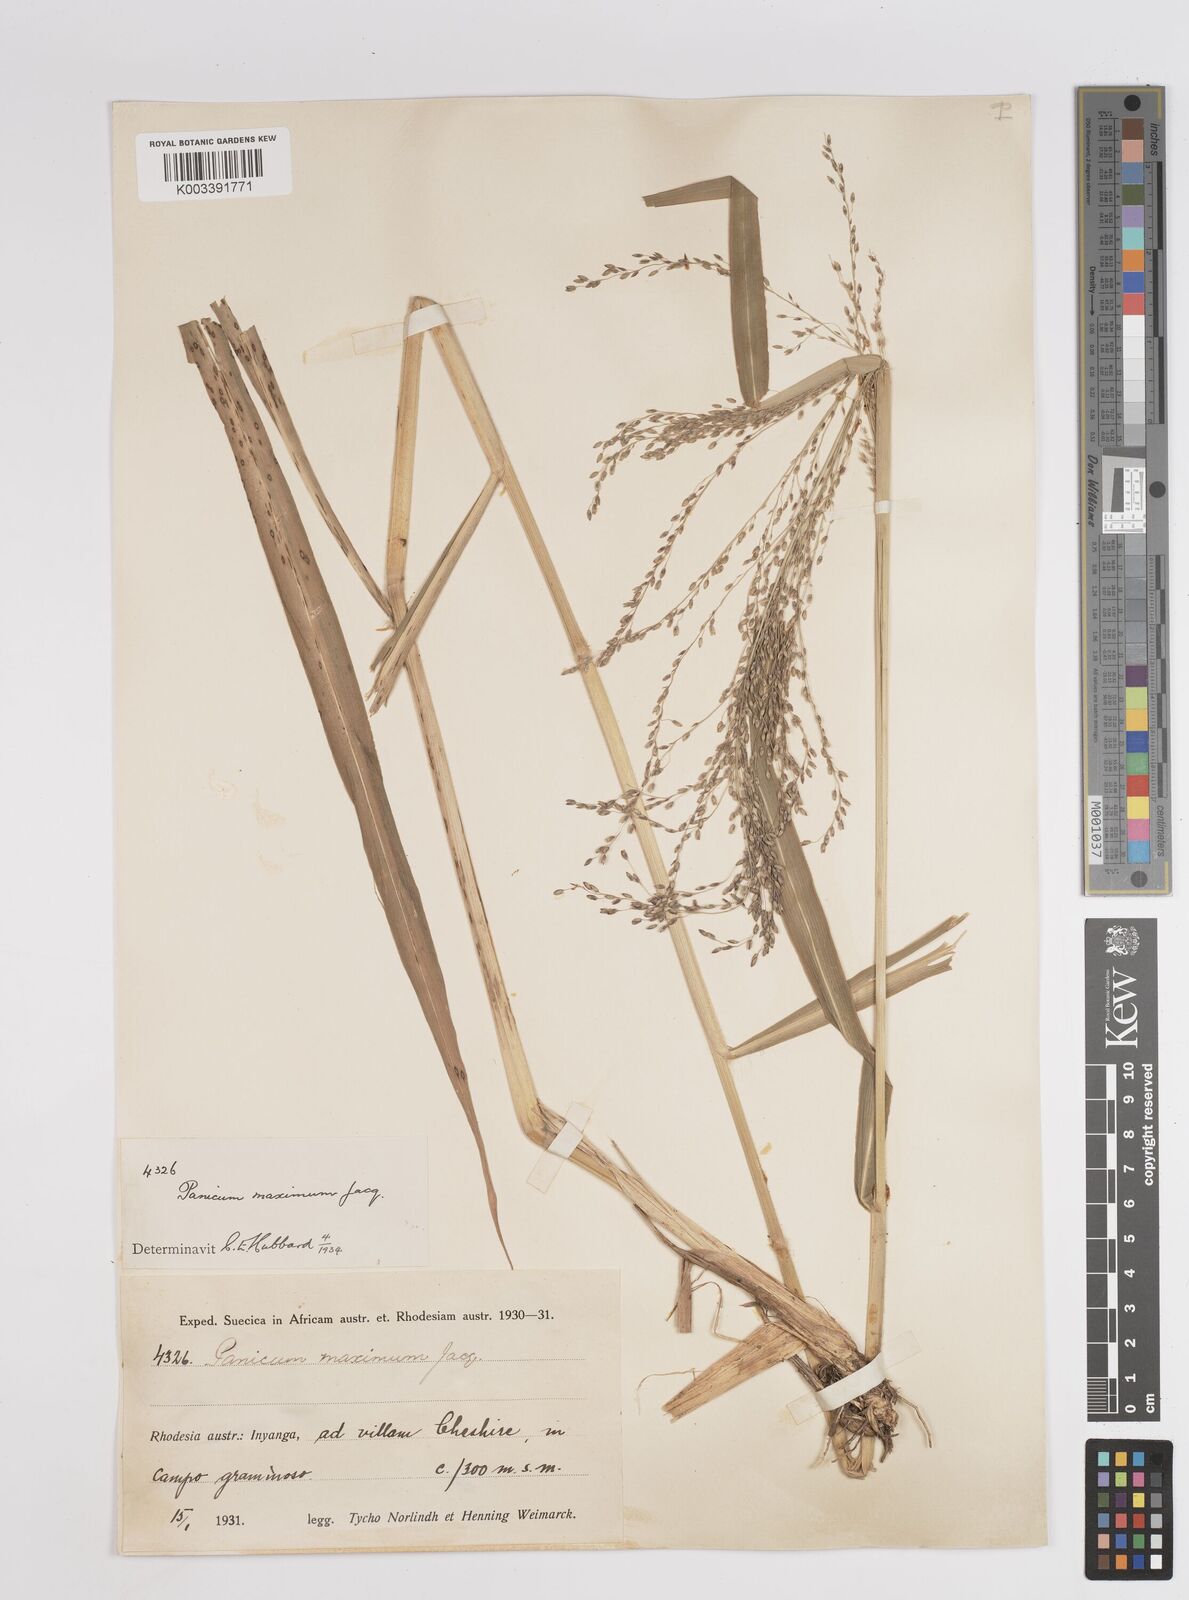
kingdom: Plantae
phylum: Tracheophyta
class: Liliopsida
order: Poales
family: Poaceae
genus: Megathyrsus
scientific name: Megathyrsus maximus
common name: Guineagrass
